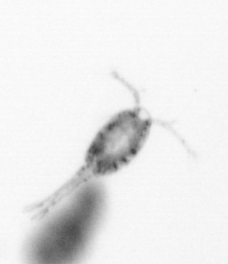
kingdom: Animalia
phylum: Arthropoda
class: Copepoda
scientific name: Copepoda
